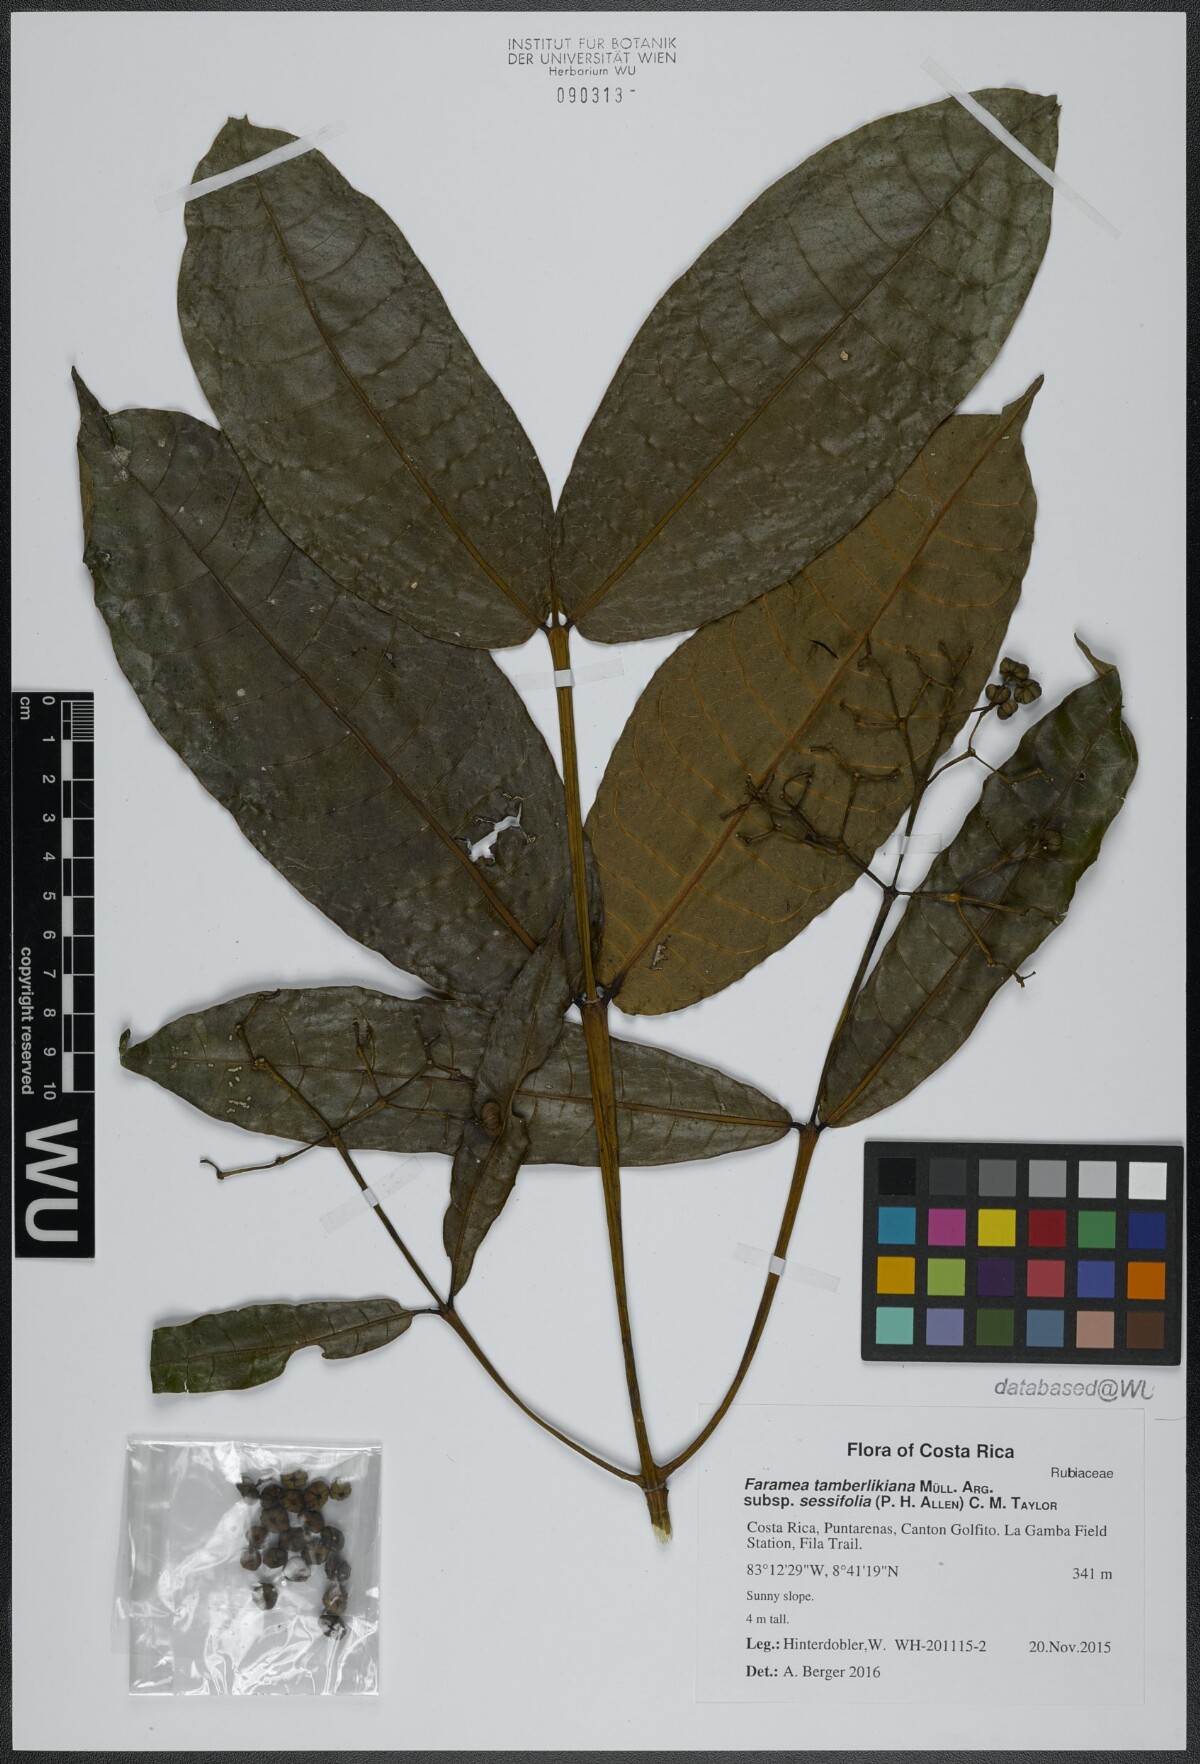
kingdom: Plantae
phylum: Tracheophyta
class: Magnoliopsida
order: Gentianales
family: Rubiaceae
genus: Faramea
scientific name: Faramea tamberlikiana
